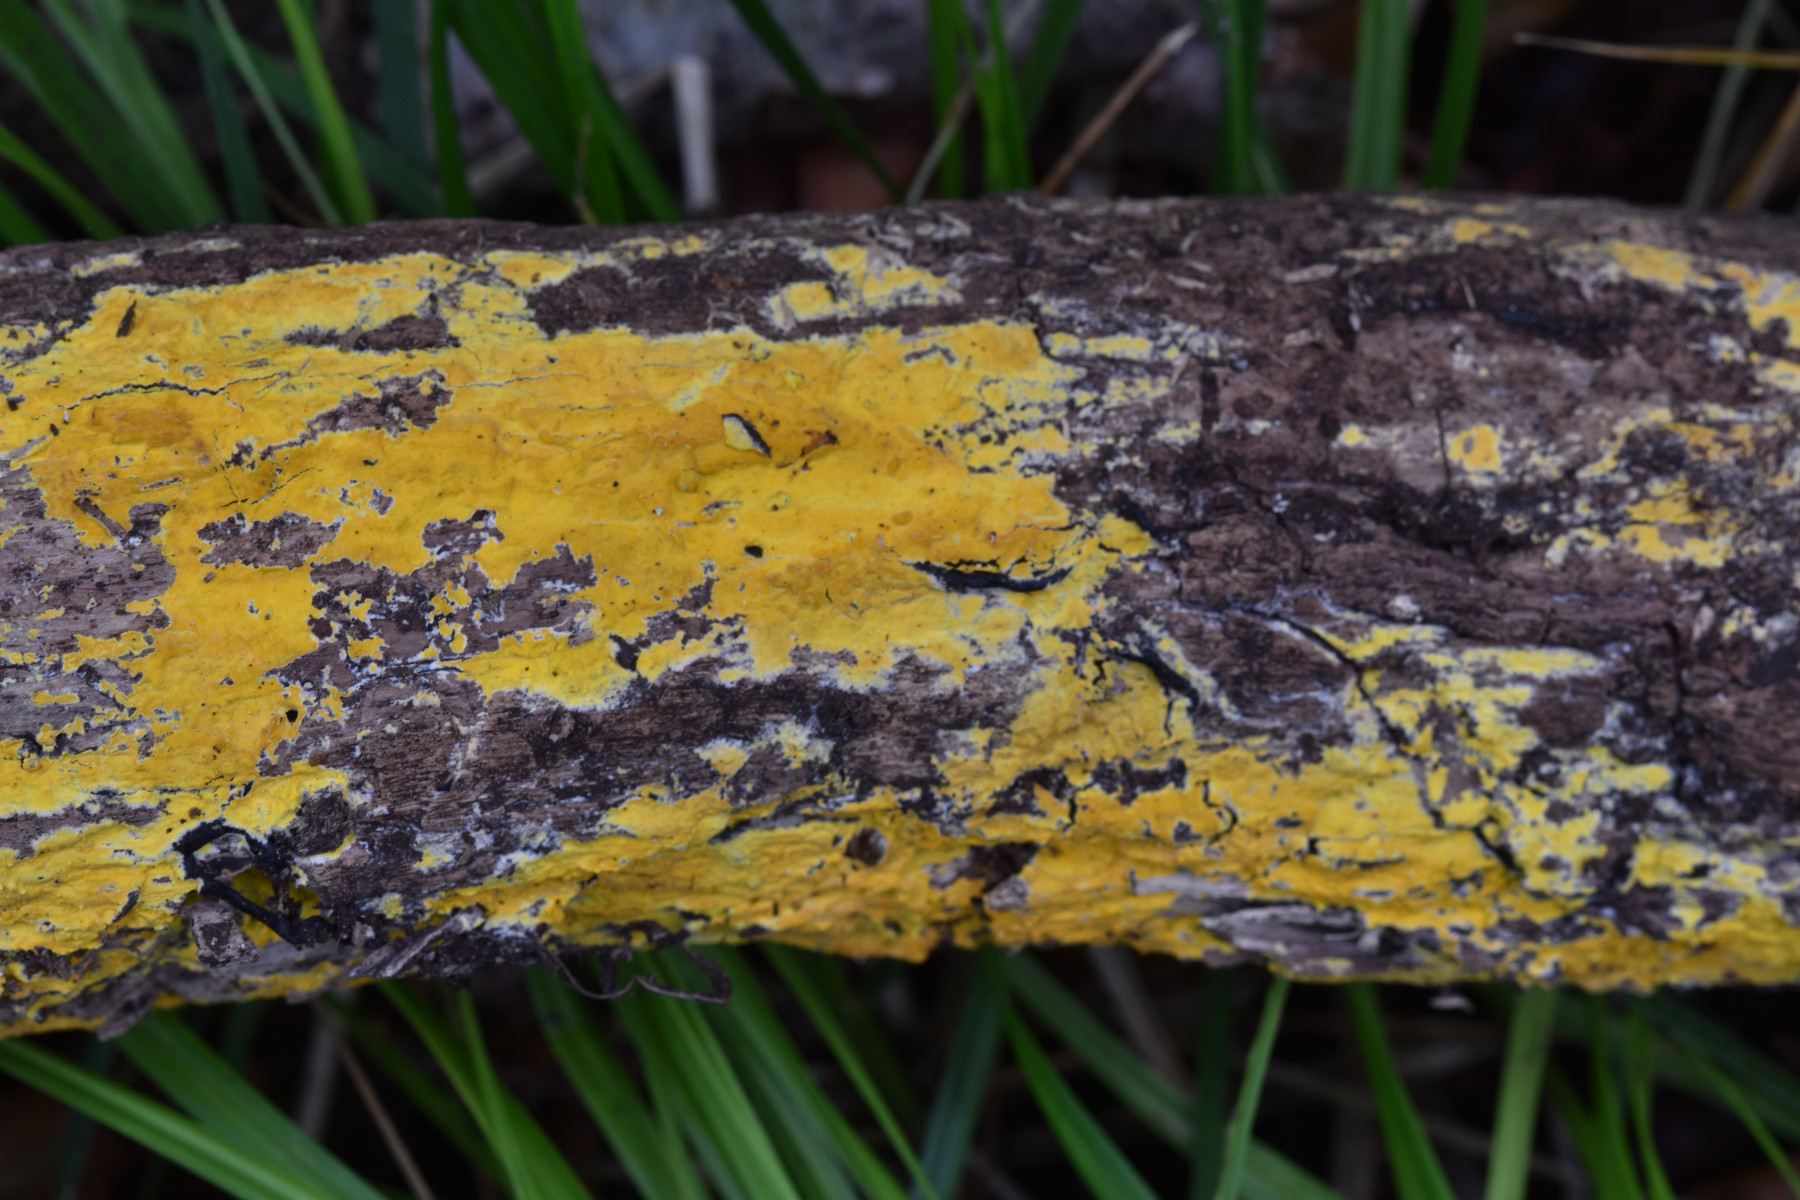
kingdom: Fungi
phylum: Basidiomycota
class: Agaricomycetes
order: Polyporales
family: Meruliaceae
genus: Phlebiodontia
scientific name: Phlebiodontia subochracea
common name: svovl-åresvamp
